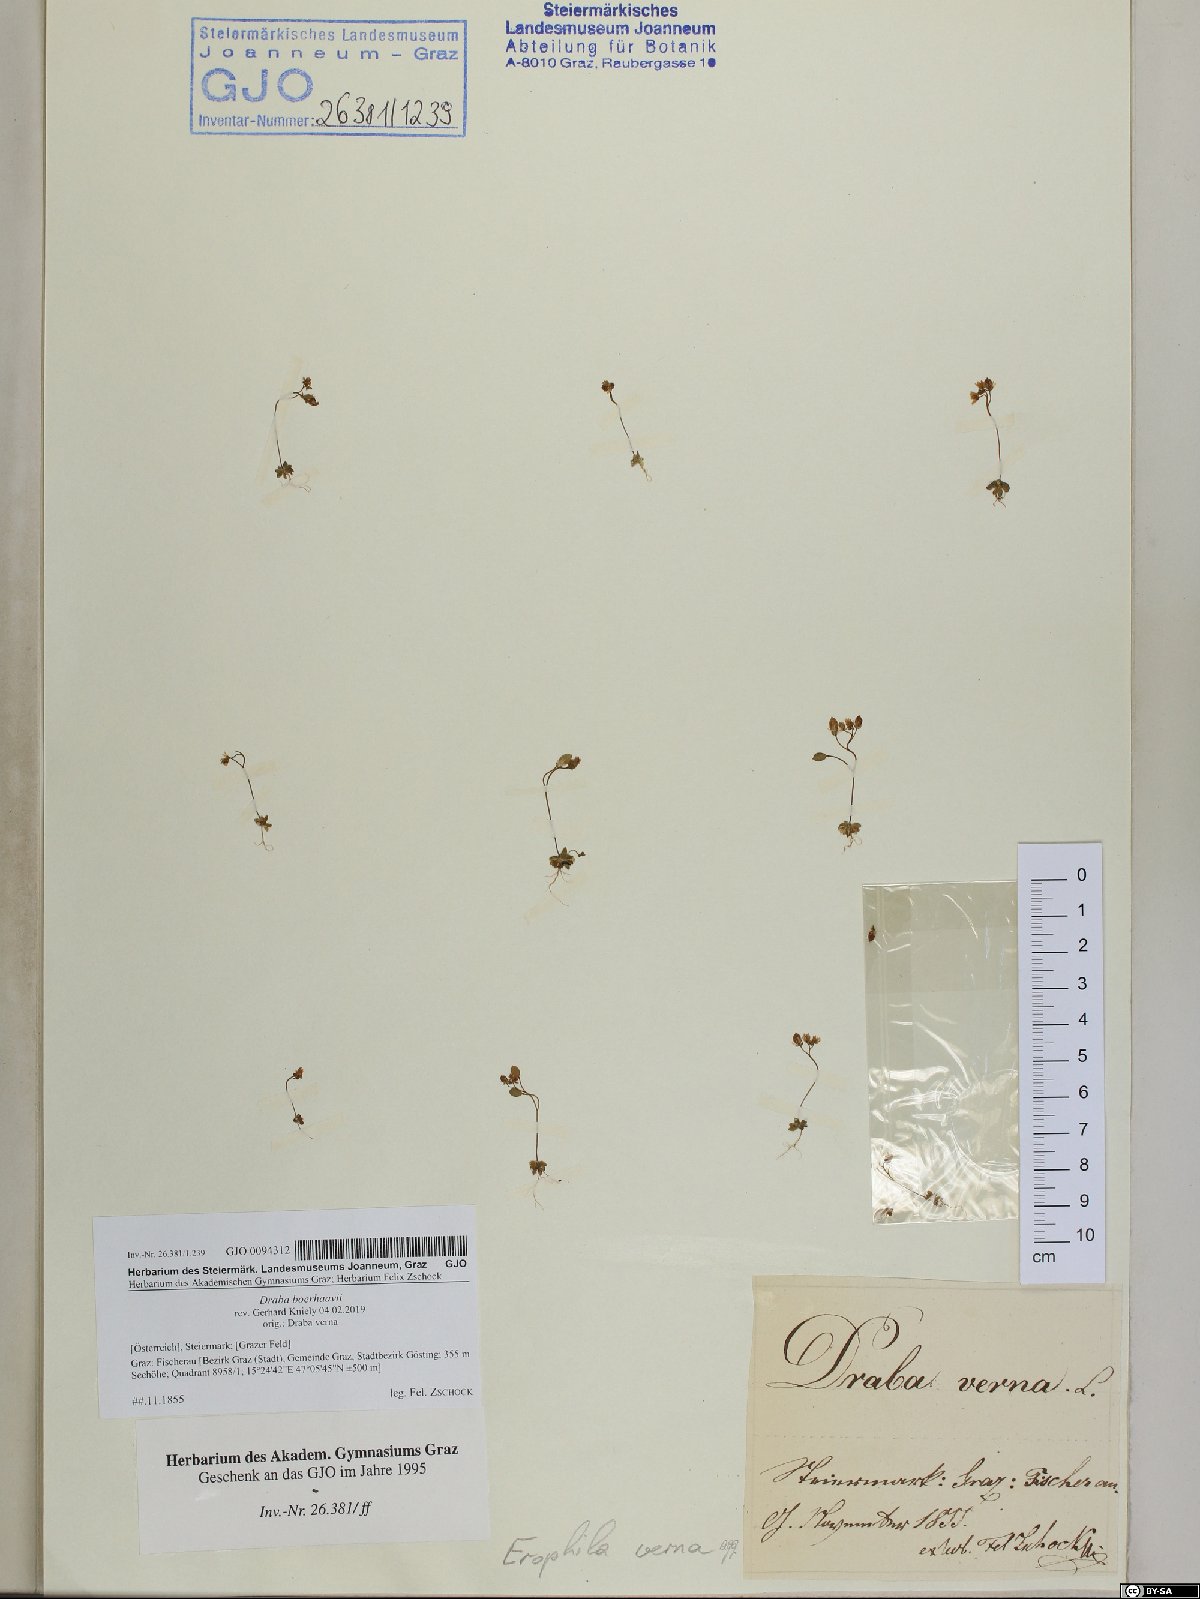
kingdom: Plantae
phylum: Tracheophyta
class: Magnoliopsida
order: Brassicales
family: Brassicaceae
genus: Draba
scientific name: Draba verna
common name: Spring draba
